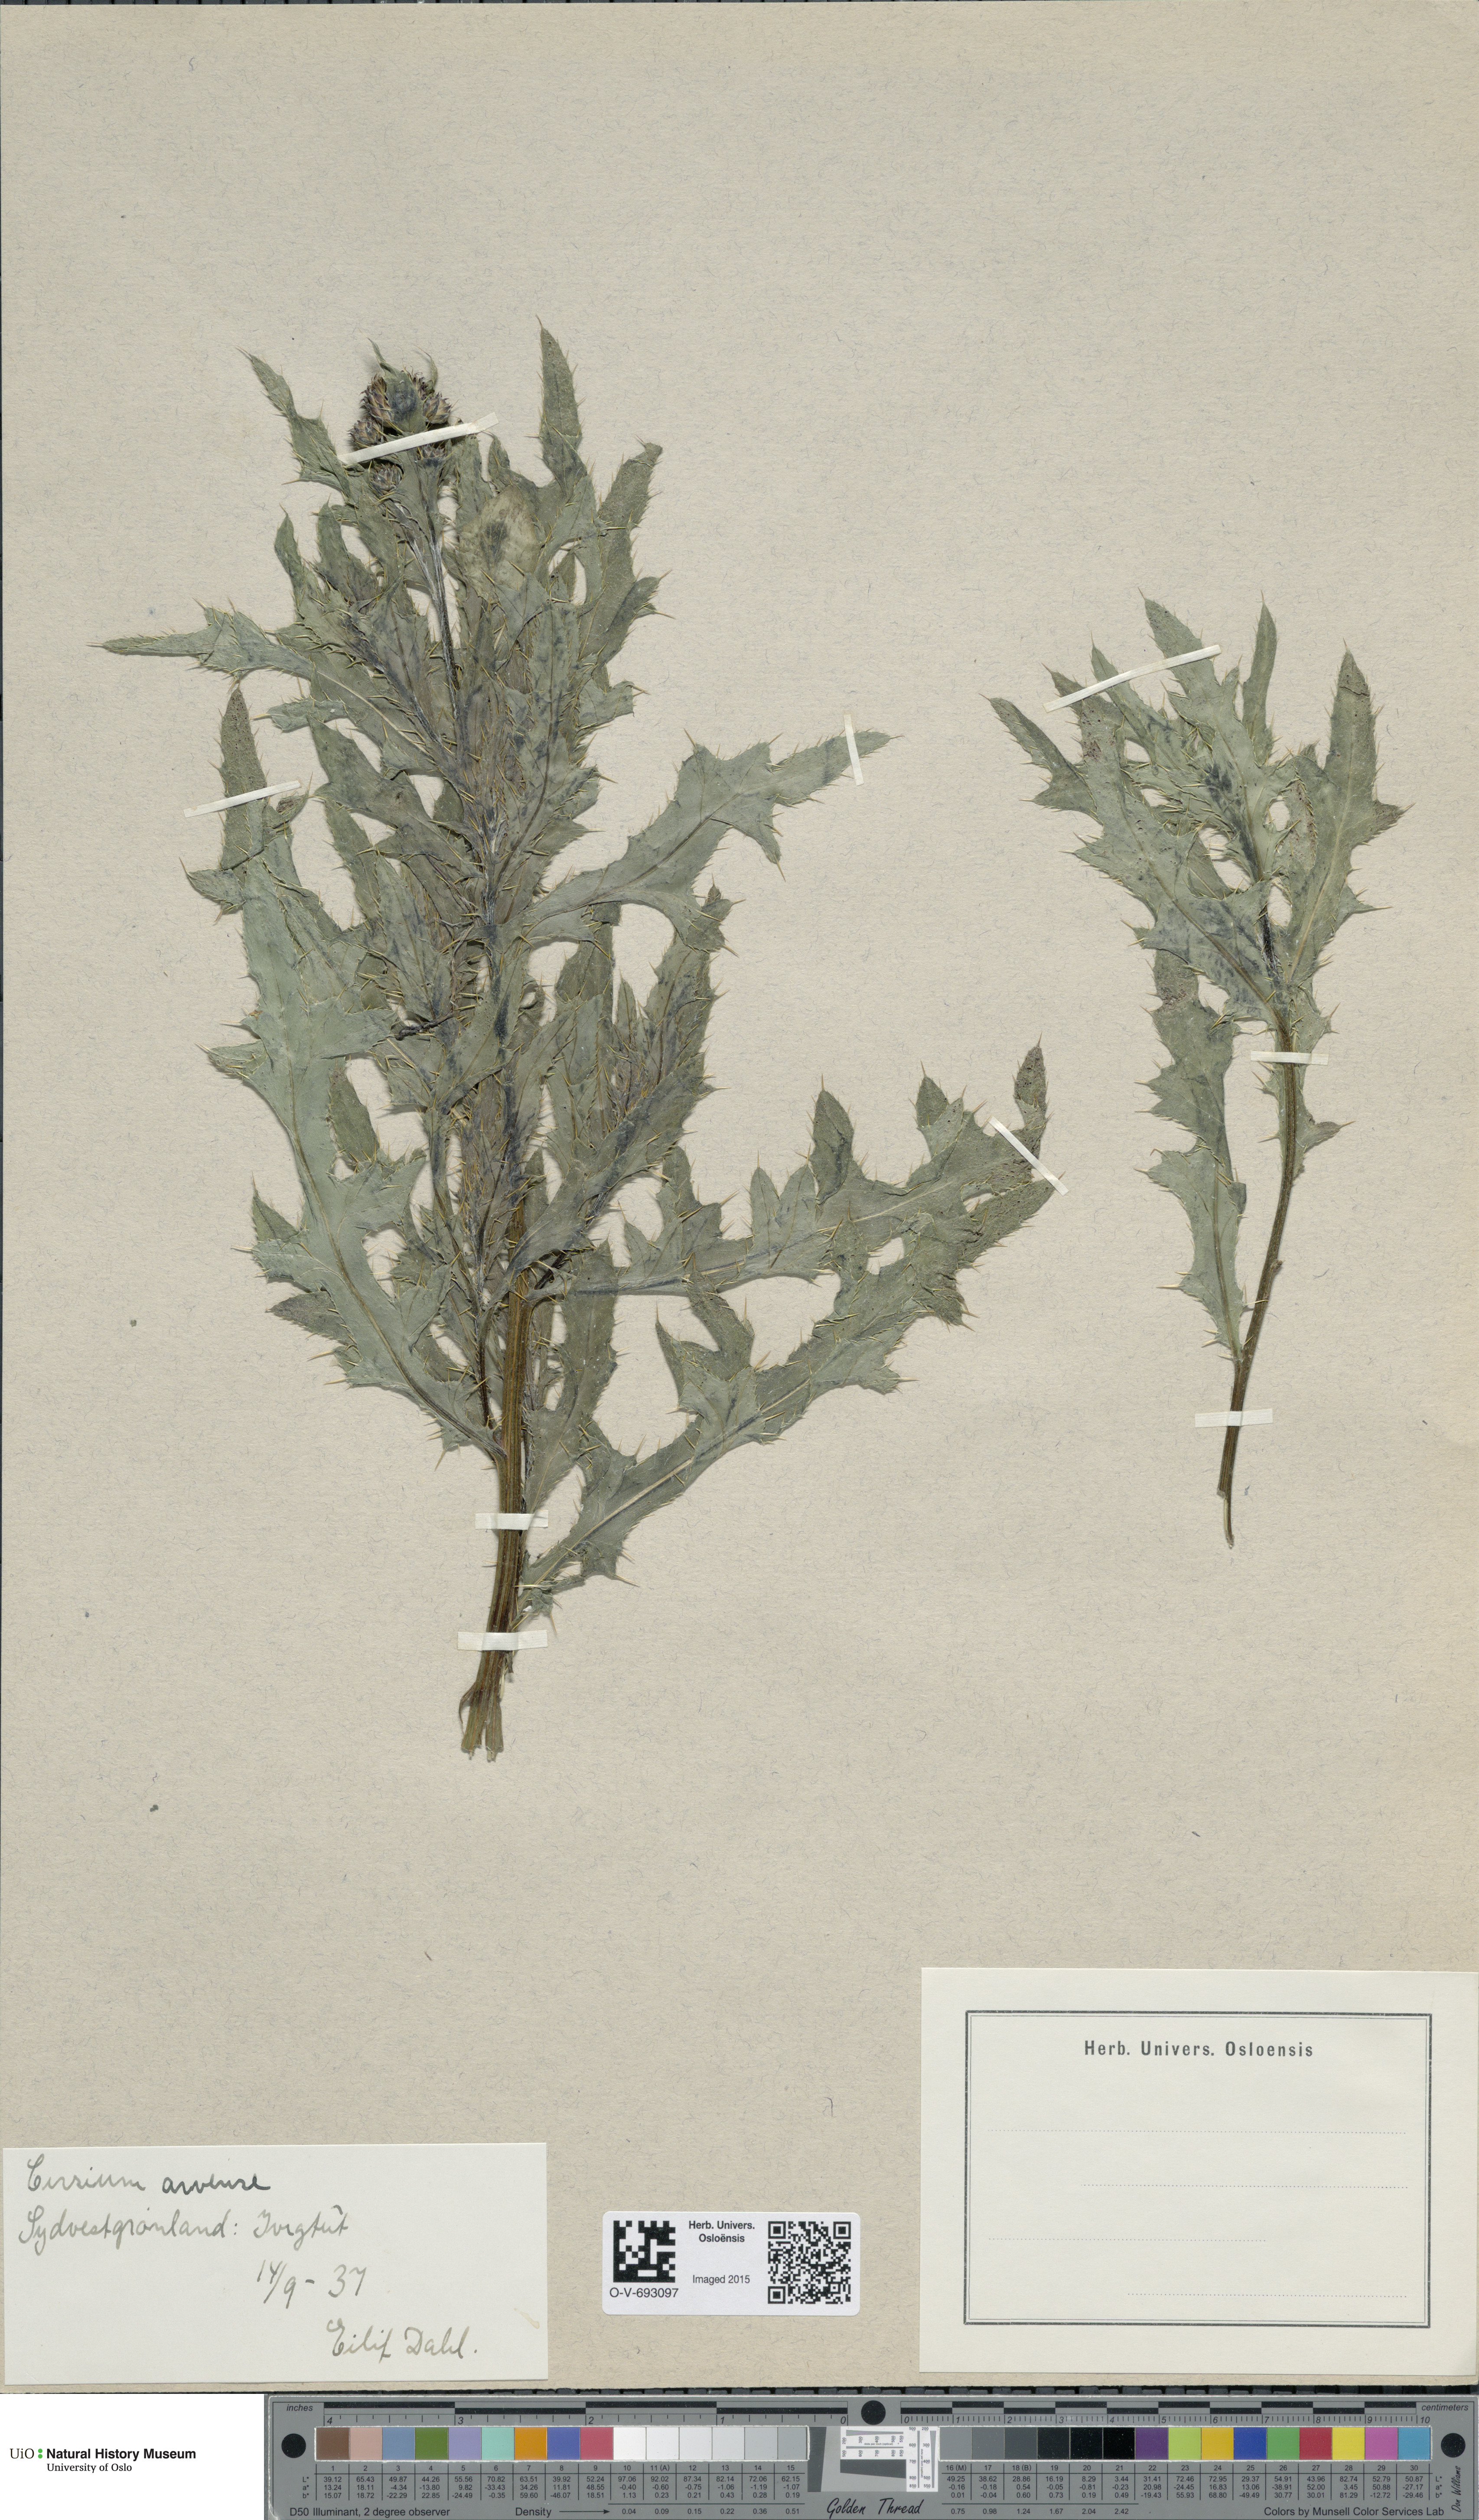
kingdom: Plantae
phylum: Tracheophyta
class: Magnoliopsida
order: Asterales
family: Asteraceae
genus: Cirsium
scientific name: Cirsium arvense
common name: Creeping thistle
